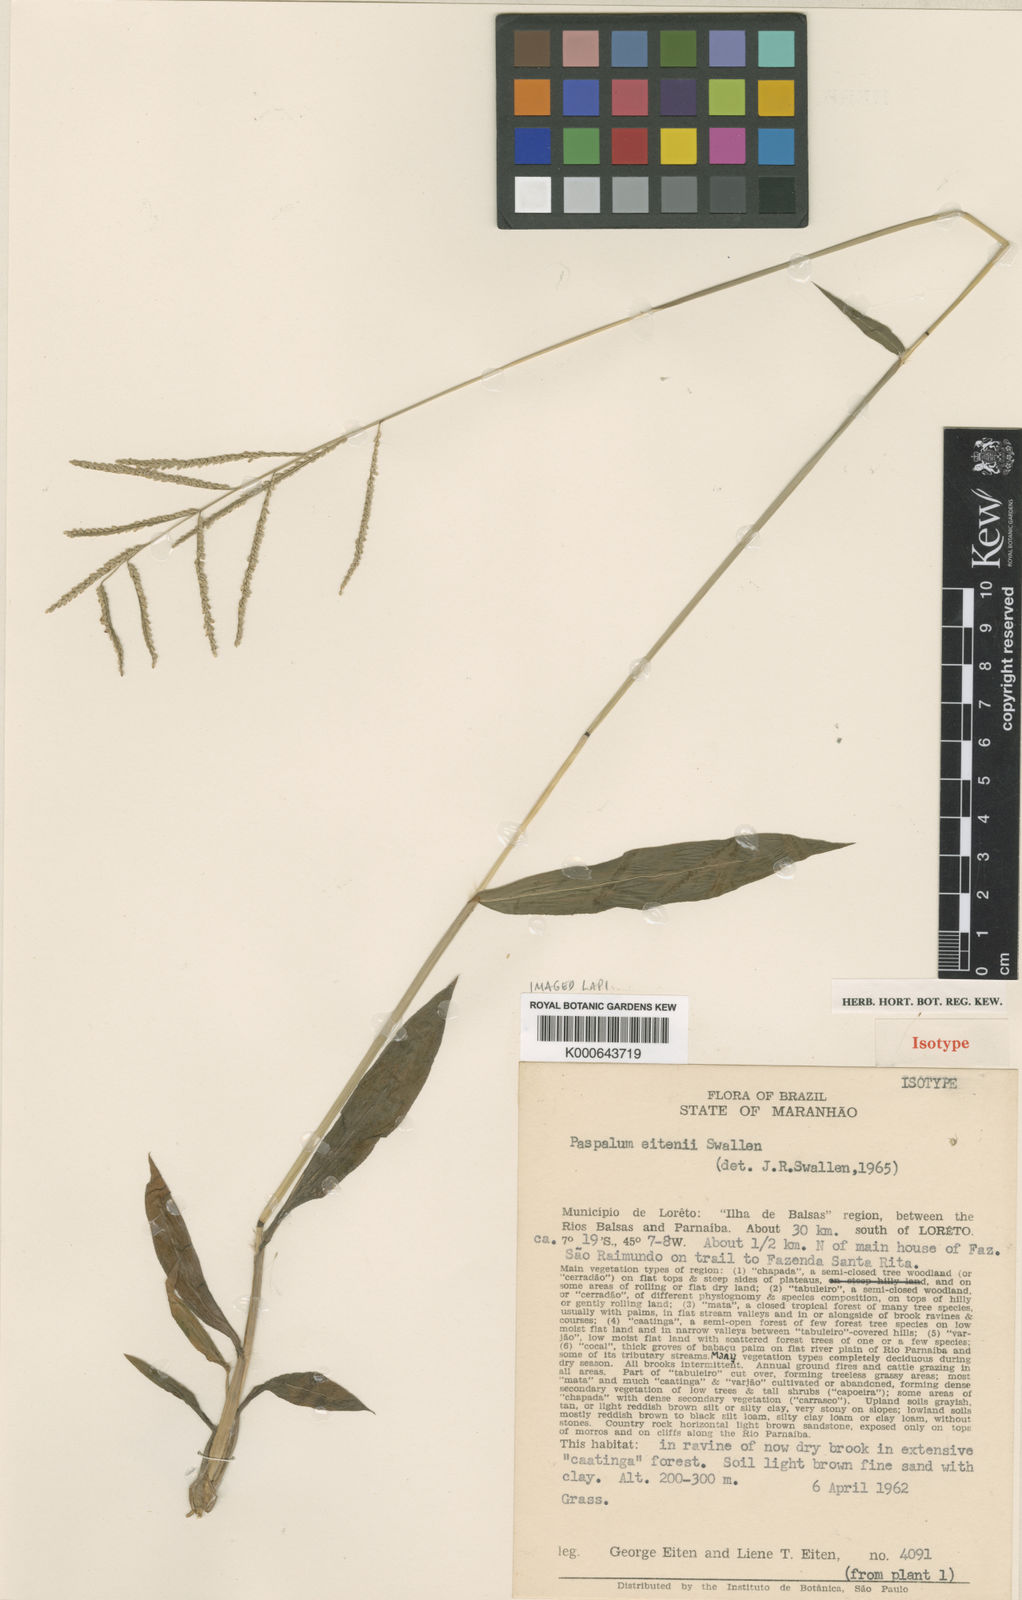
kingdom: Plantae
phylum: Tracheophyta
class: Liliopsida
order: Poales
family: Poaceae
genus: Paspalum
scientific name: Paspalum malacophyllum
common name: Ribbed paspalum
